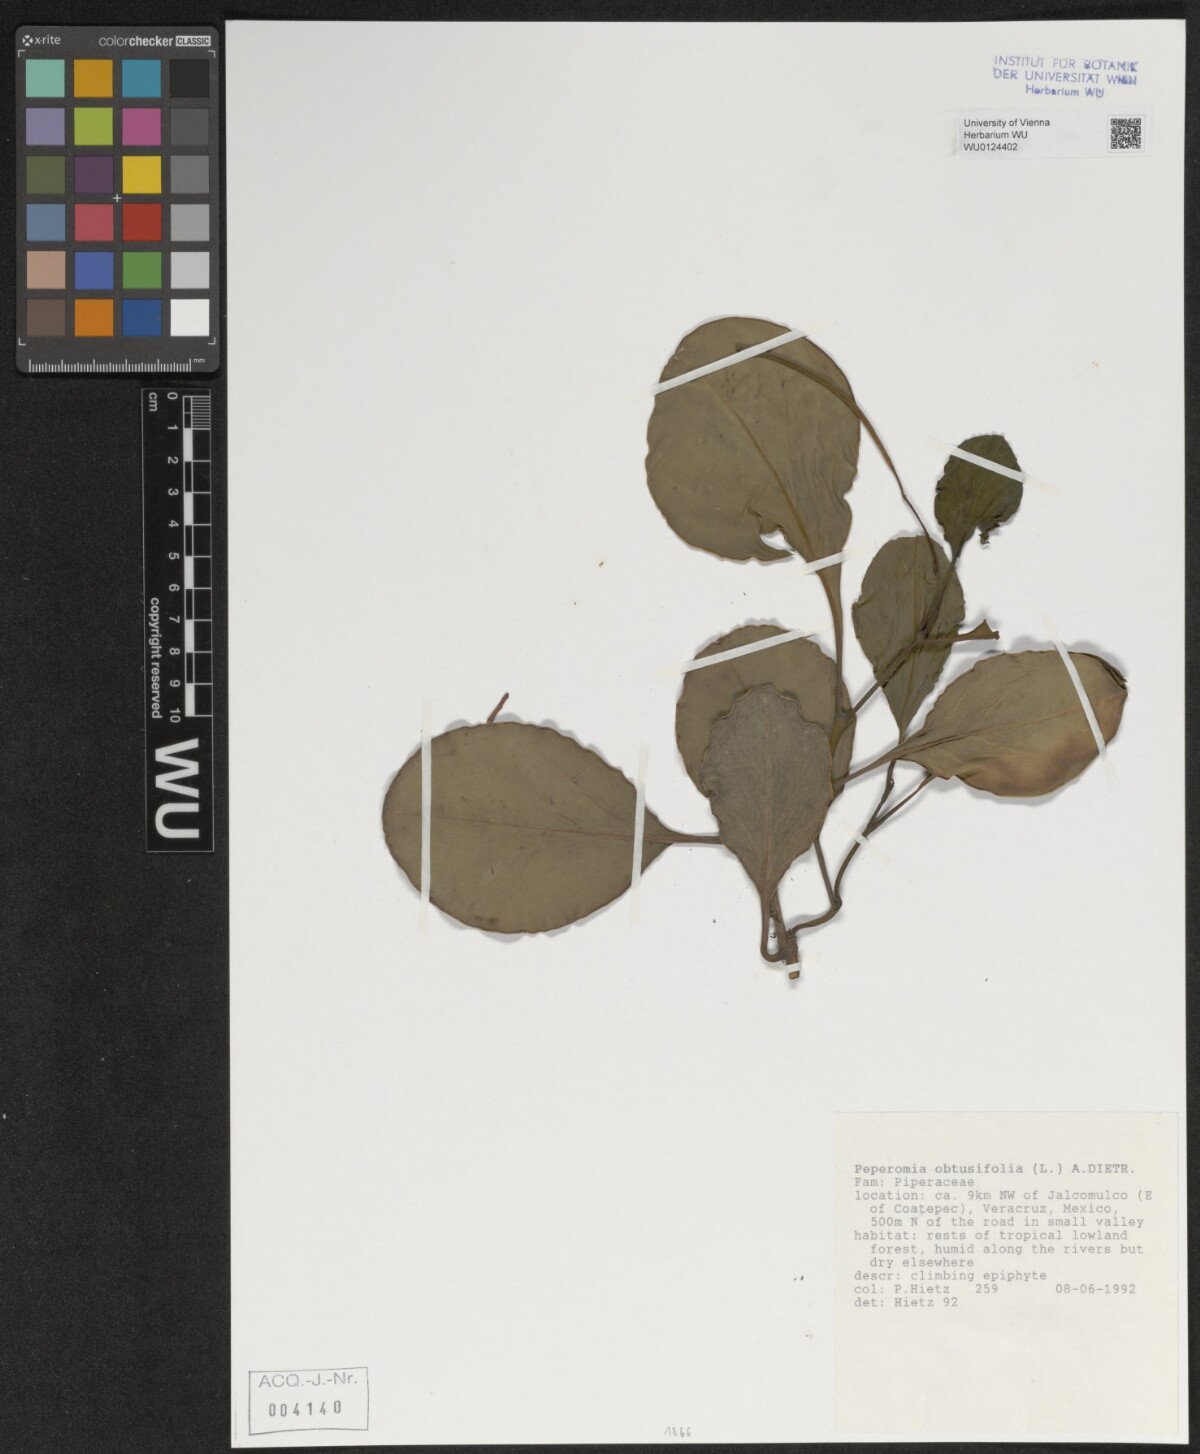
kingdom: Plantae
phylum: Tracheophyta
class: Magnoliopsida
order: Piperales
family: Piperaceae
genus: Peperomia
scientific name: Peperomia obtusifolia
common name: Baby rubberplant
